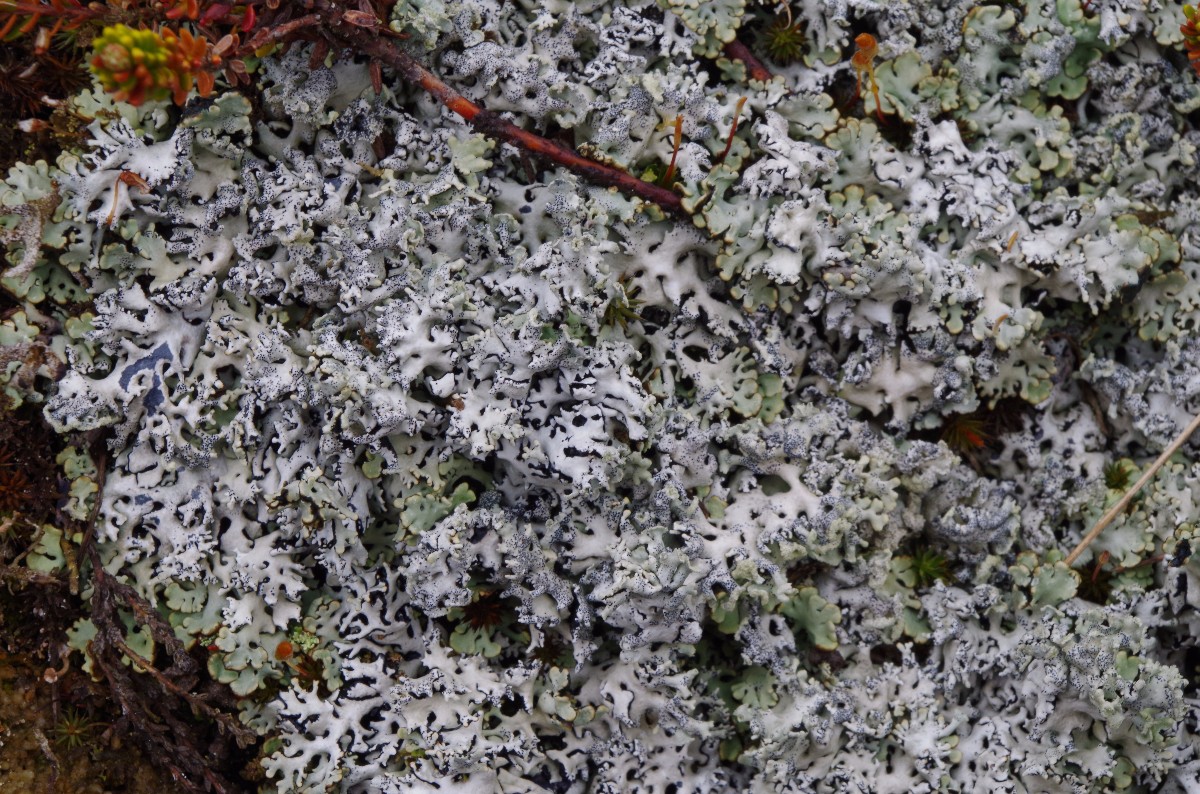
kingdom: Fungi
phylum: Ascomycota
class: Lecanoromycetes
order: Lecanorales
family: Parmeliaceae
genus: Hypogymnia
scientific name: Hypogymnia physodes
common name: almindelig kvistlav
